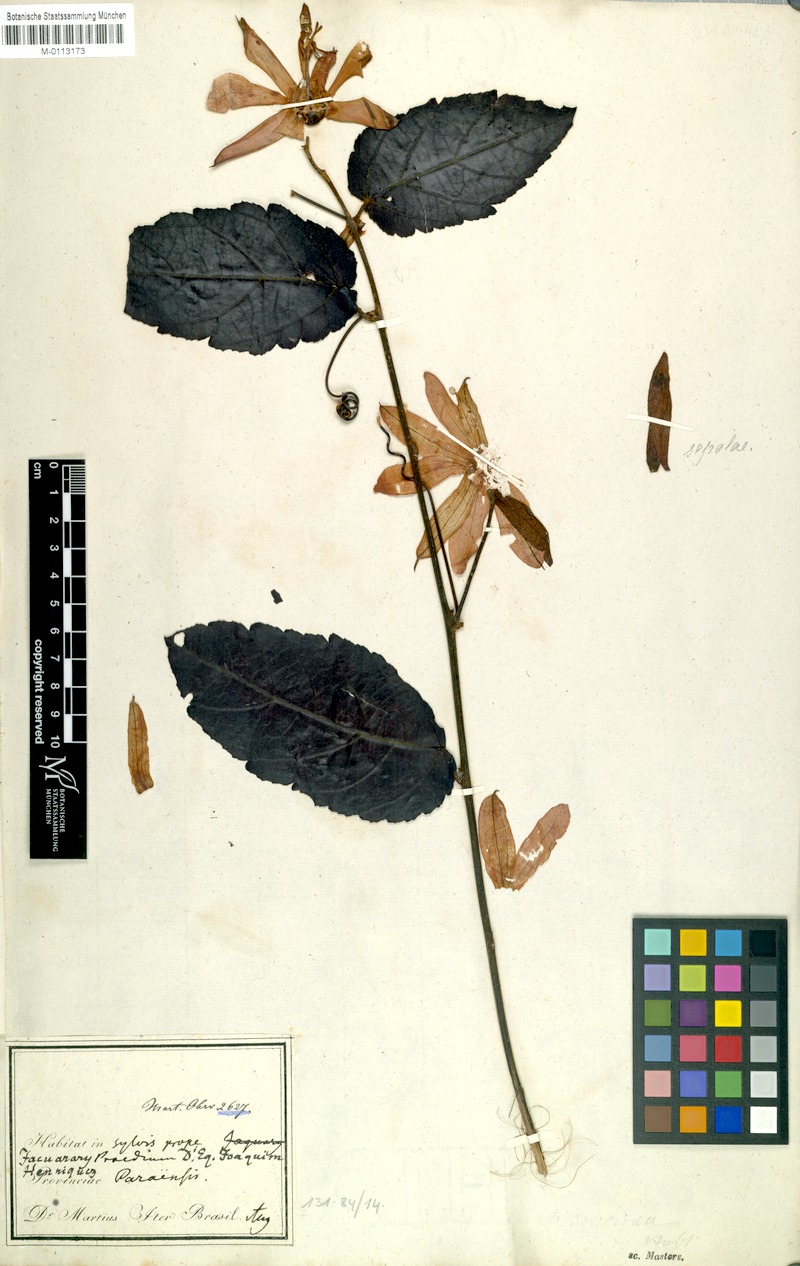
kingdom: Plantae
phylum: Tracheophyta
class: Magnoliopsida
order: Malpighiales
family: Passifloraceae
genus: Passiflora
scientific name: Passiflora coccinea
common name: Scarlet passionflower
